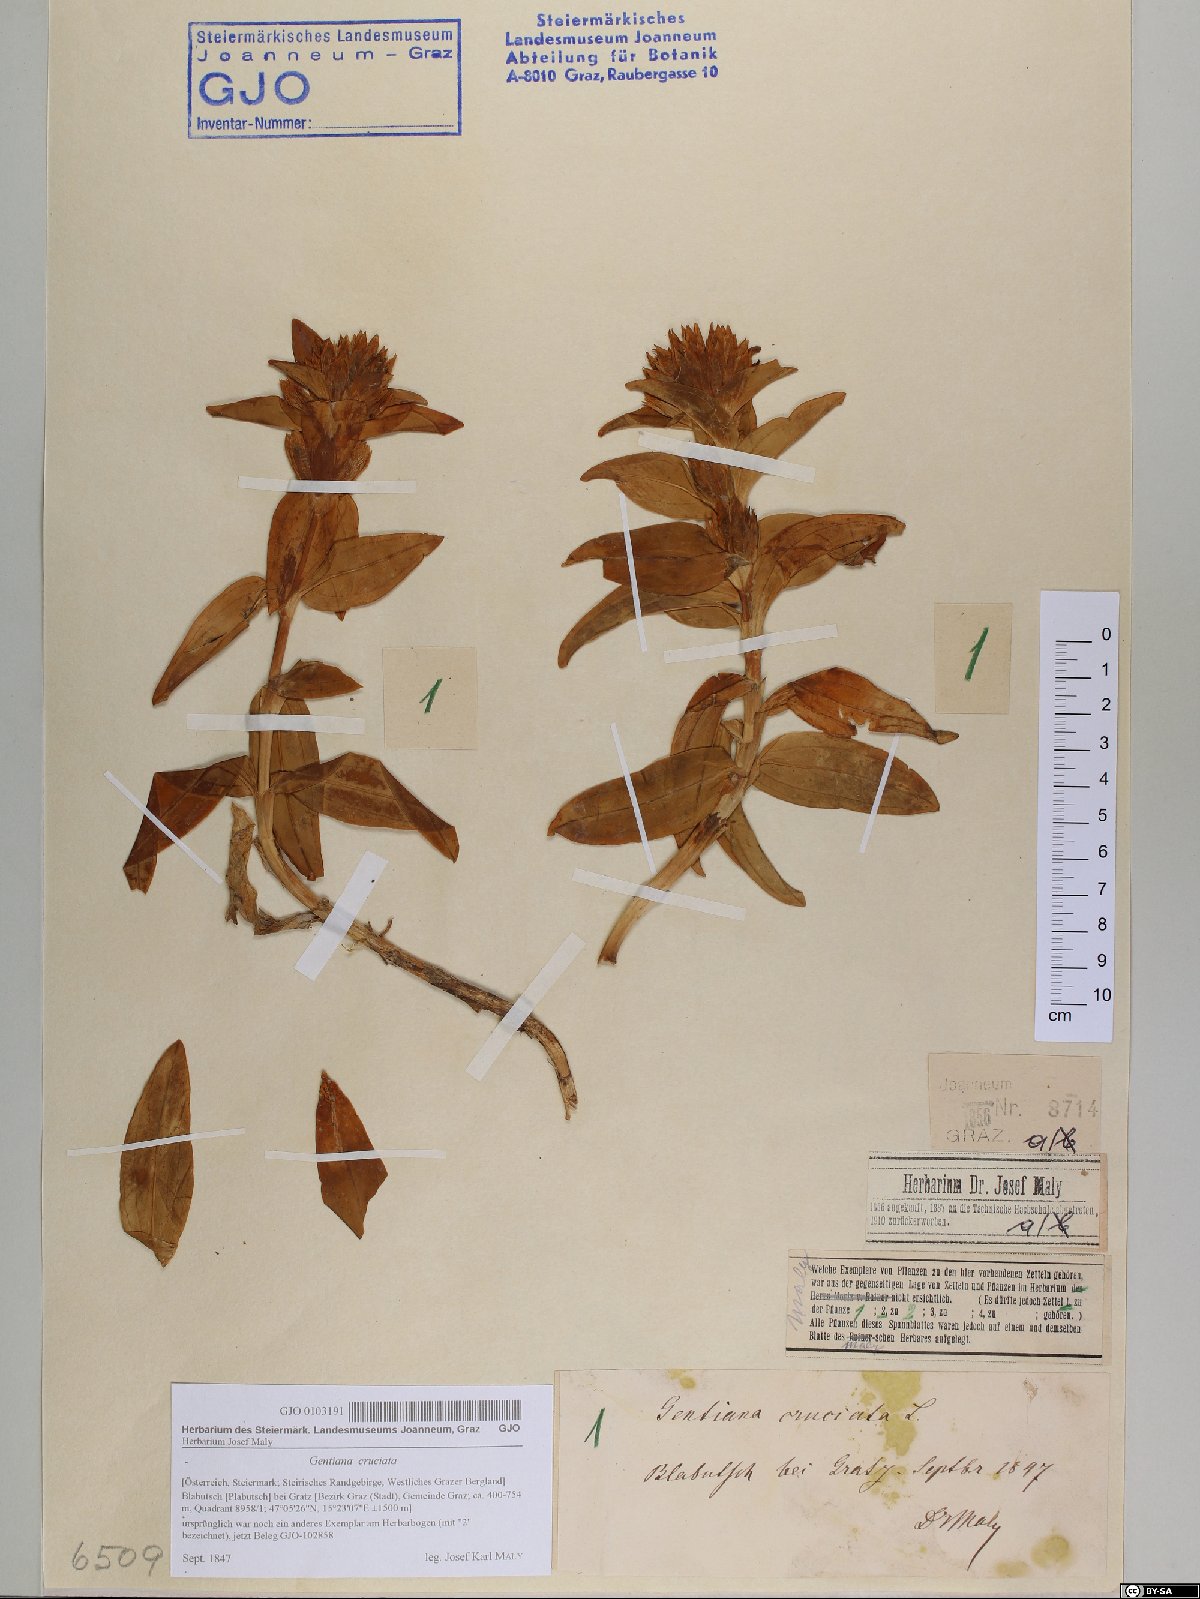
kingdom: Plantae
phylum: Tracheophyta
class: Magnoliopsida
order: Gentianales
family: Gentianaceae
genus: Gentiana
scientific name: Gentiana cruciata
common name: Cross gentian
